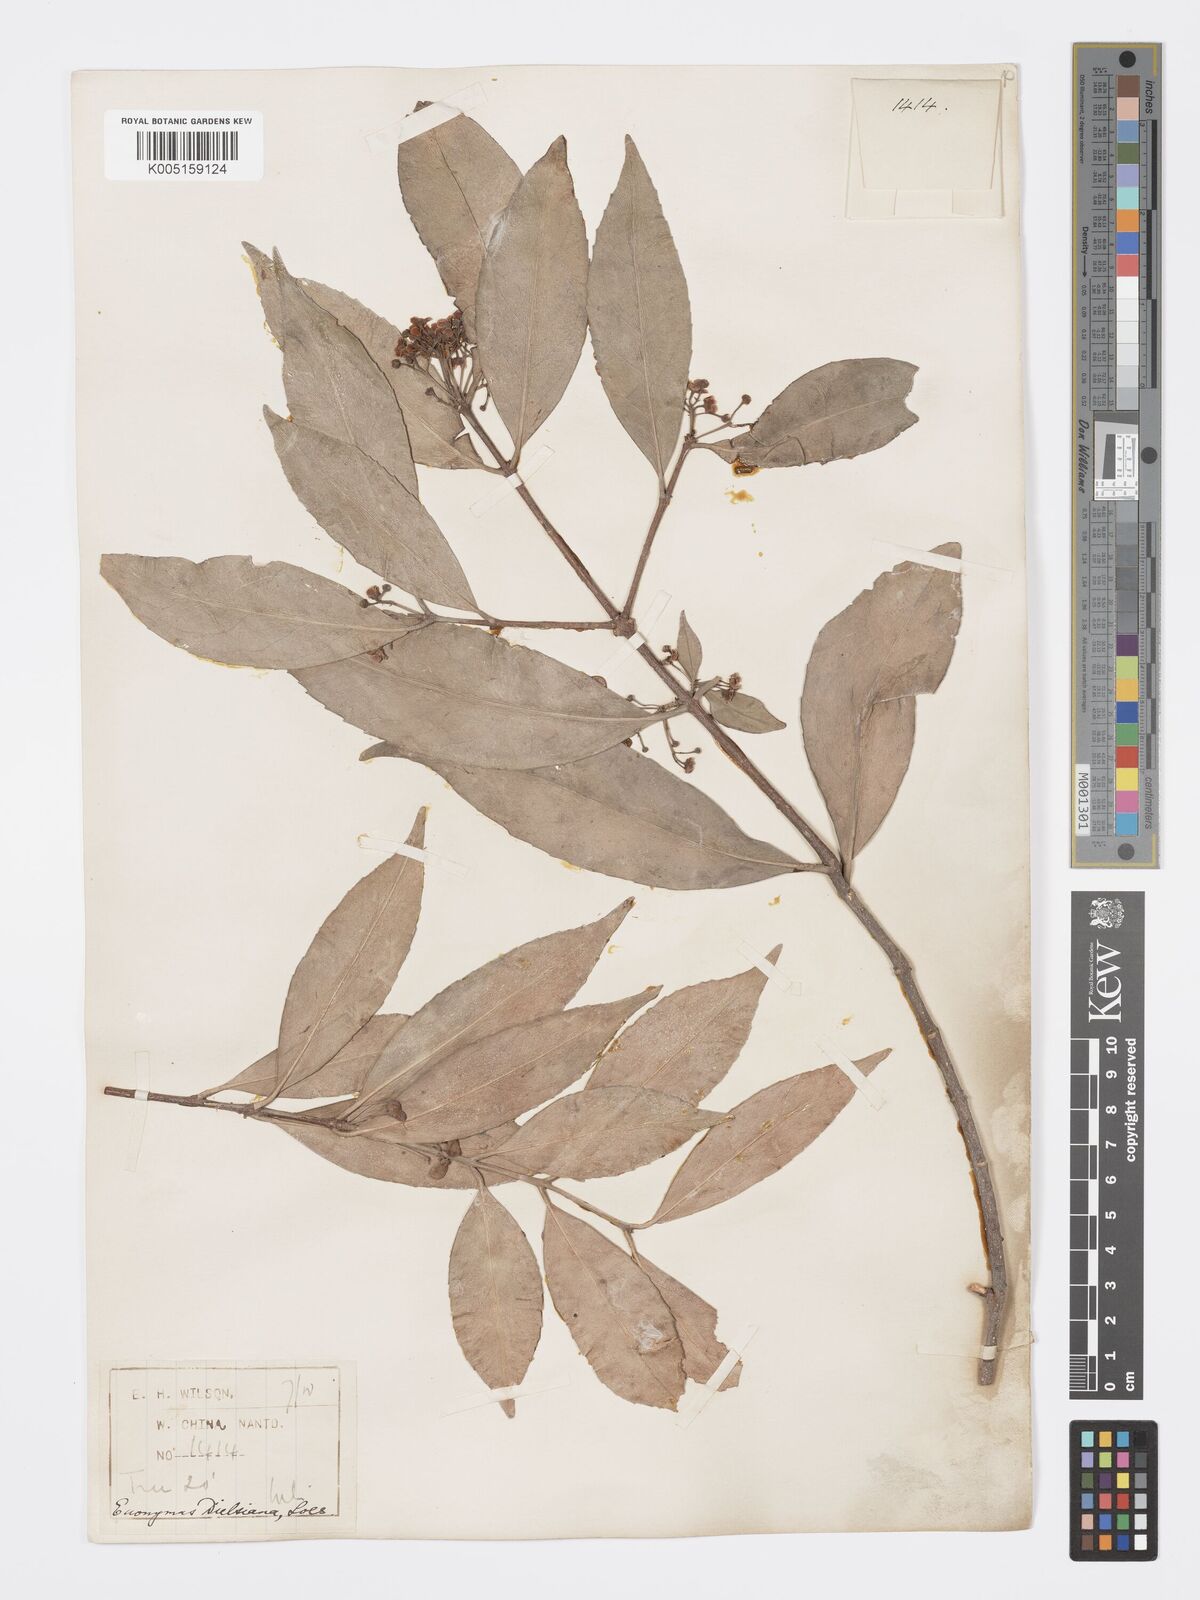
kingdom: Plantae
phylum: Tracheophyta
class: Magnoliopsida
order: Celastrales
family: Celastraceae
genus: Euonymus
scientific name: Euonymus dielsianus
